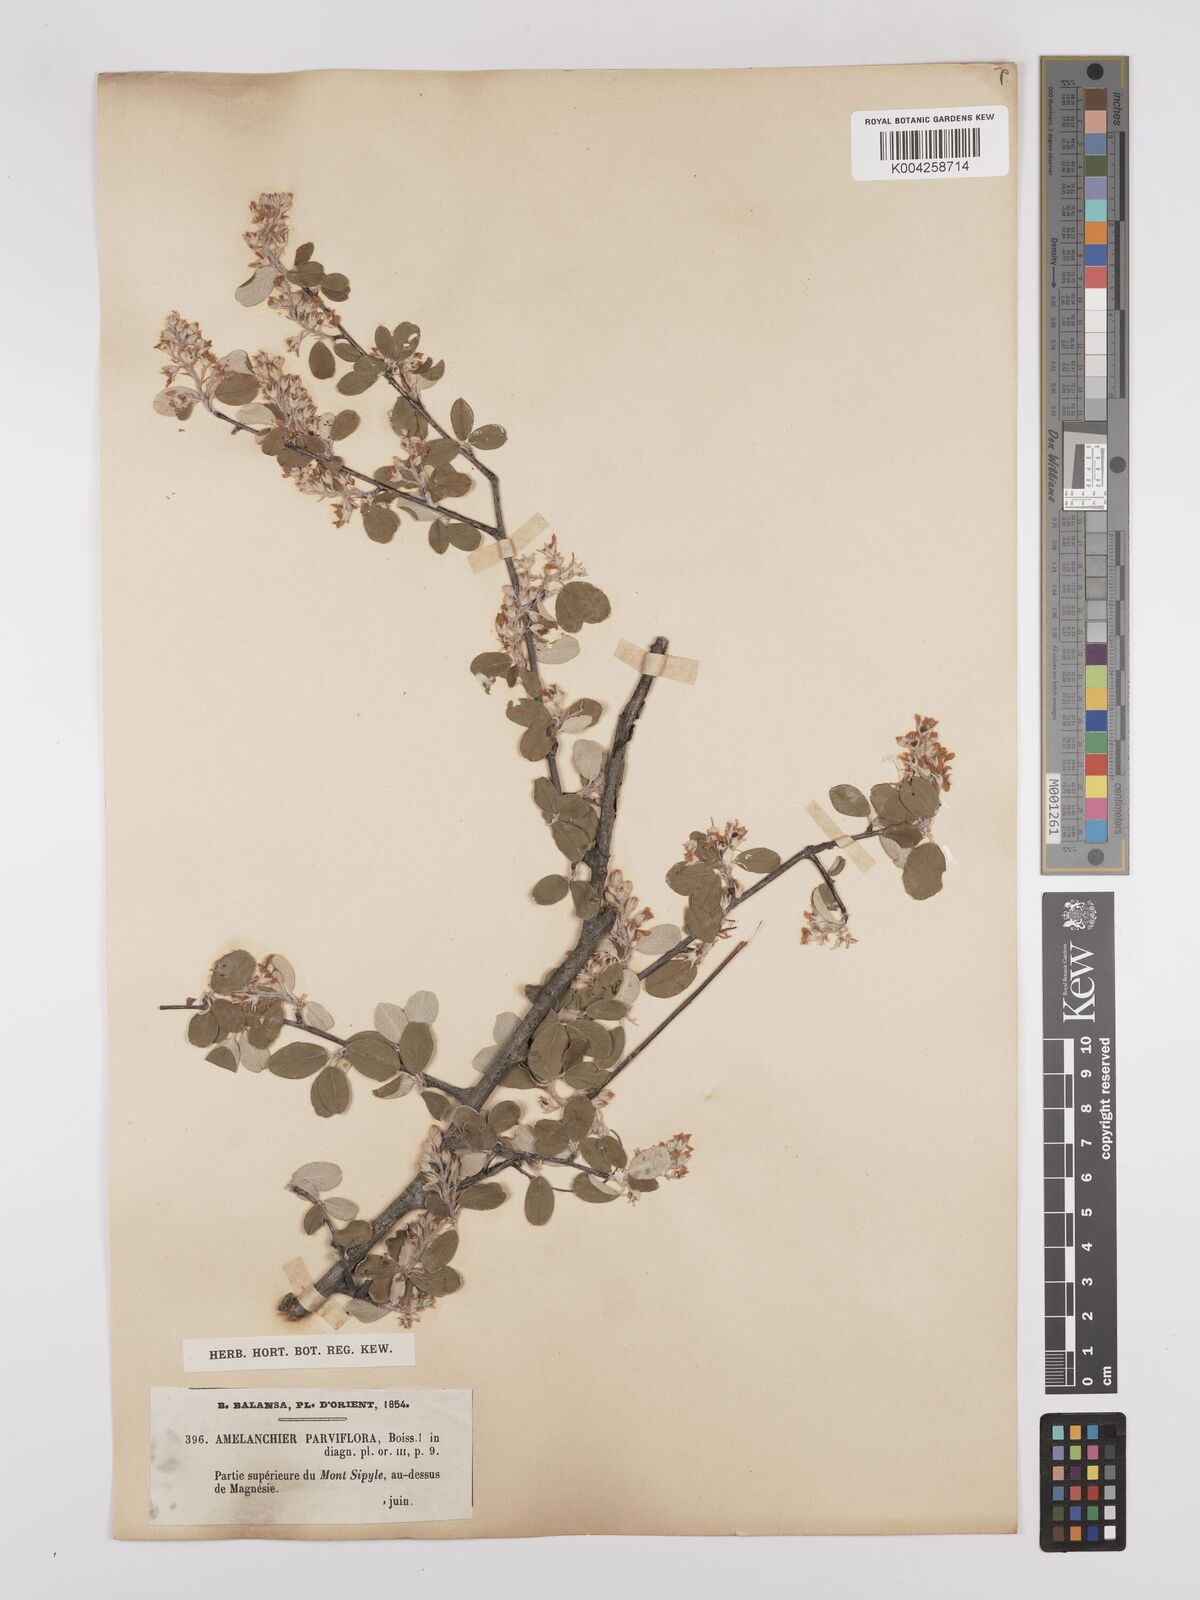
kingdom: Plantae
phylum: Tracheophyta
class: Magnoliopsida
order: Rosales
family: Rosaceae
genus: Amelanchier
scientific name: Amelanchier parviflora
